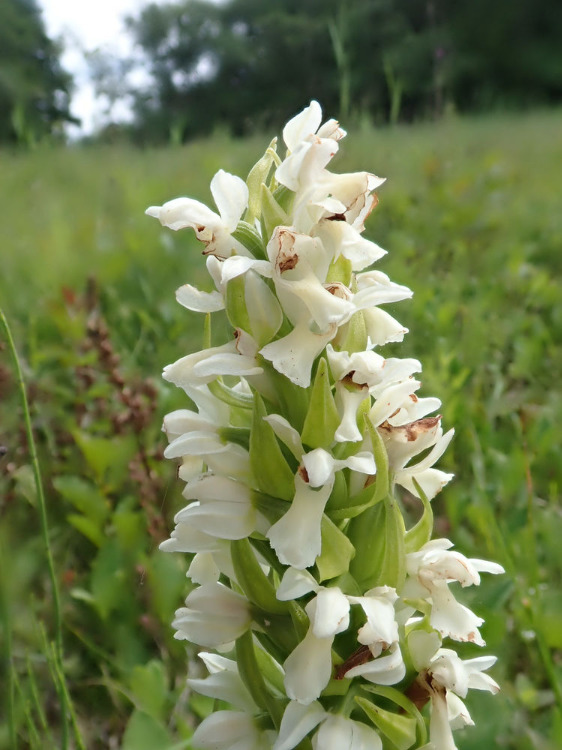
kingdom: Plantae
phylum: Tracheophyta
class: Liliopsida
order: Asparagales
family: Orchidaceae
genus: Dactylorhiza
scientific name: Dactylorhiza incarnata
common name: Hvidgul gøgeurt
